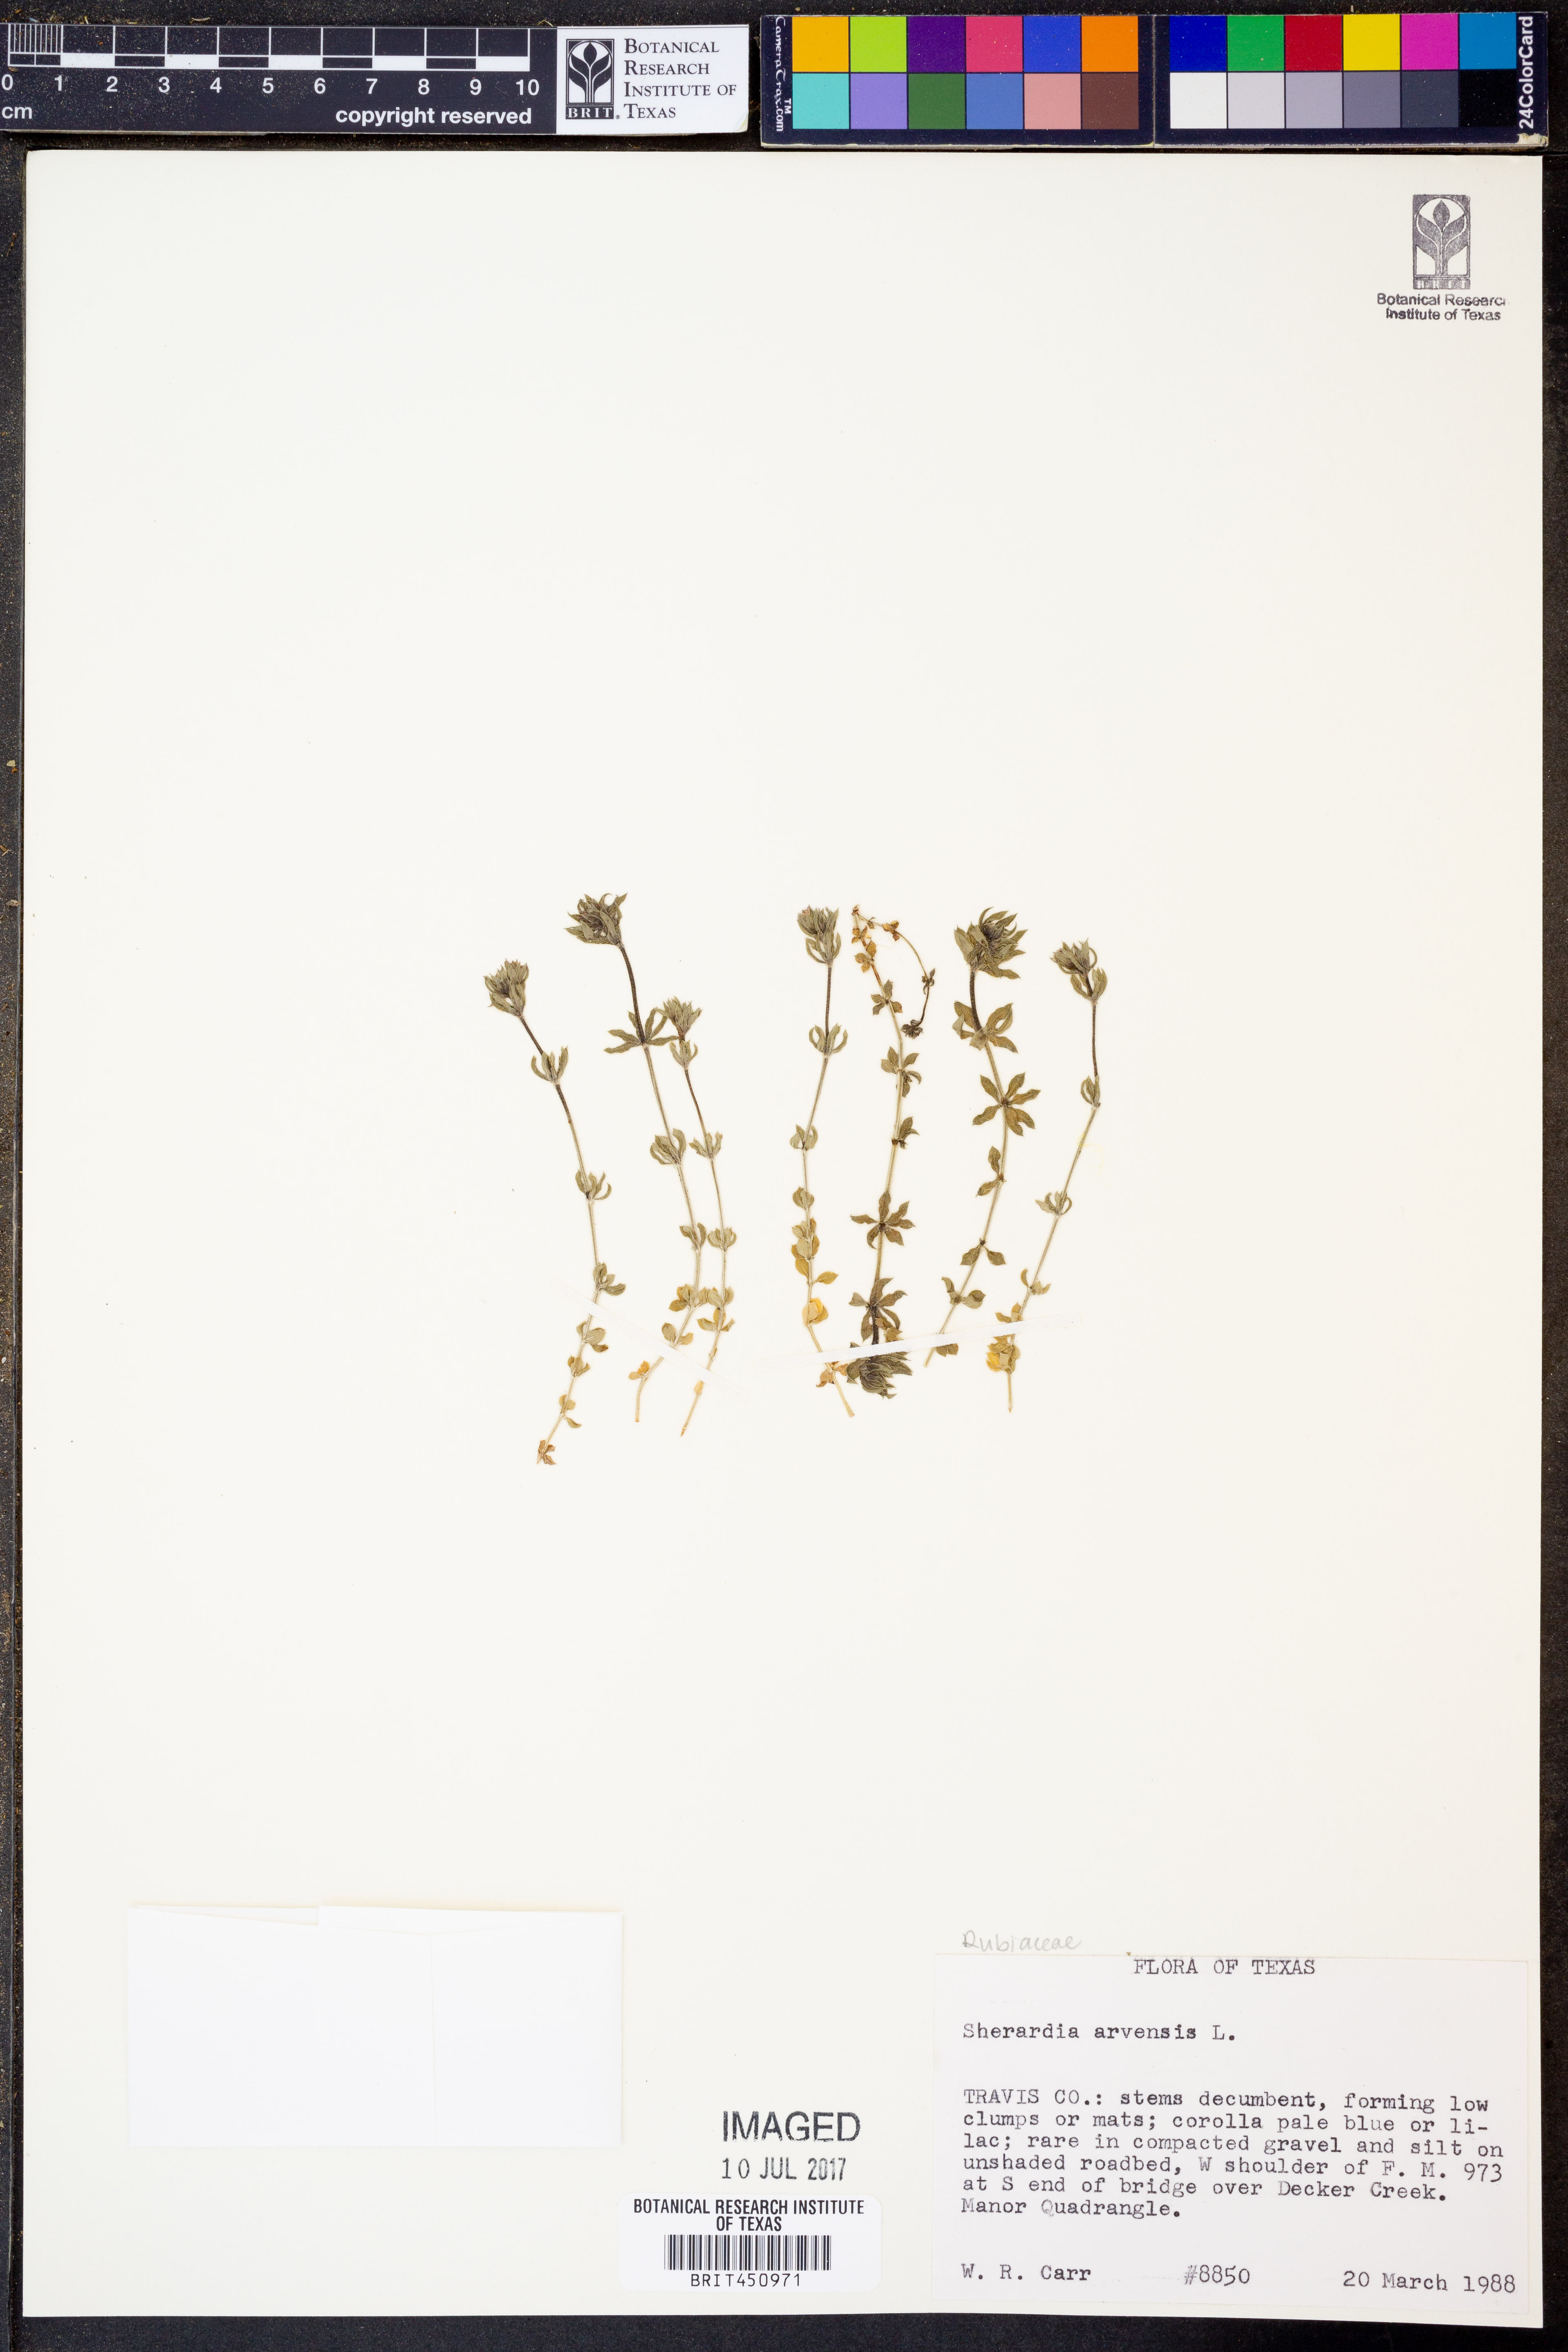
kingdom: Plantae
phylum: Tracheophyta
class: Magnoliopsida
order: Gentianales
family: Rubiaceae
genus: Sherardia
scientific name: Sherardia arvensis
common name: Field madder
